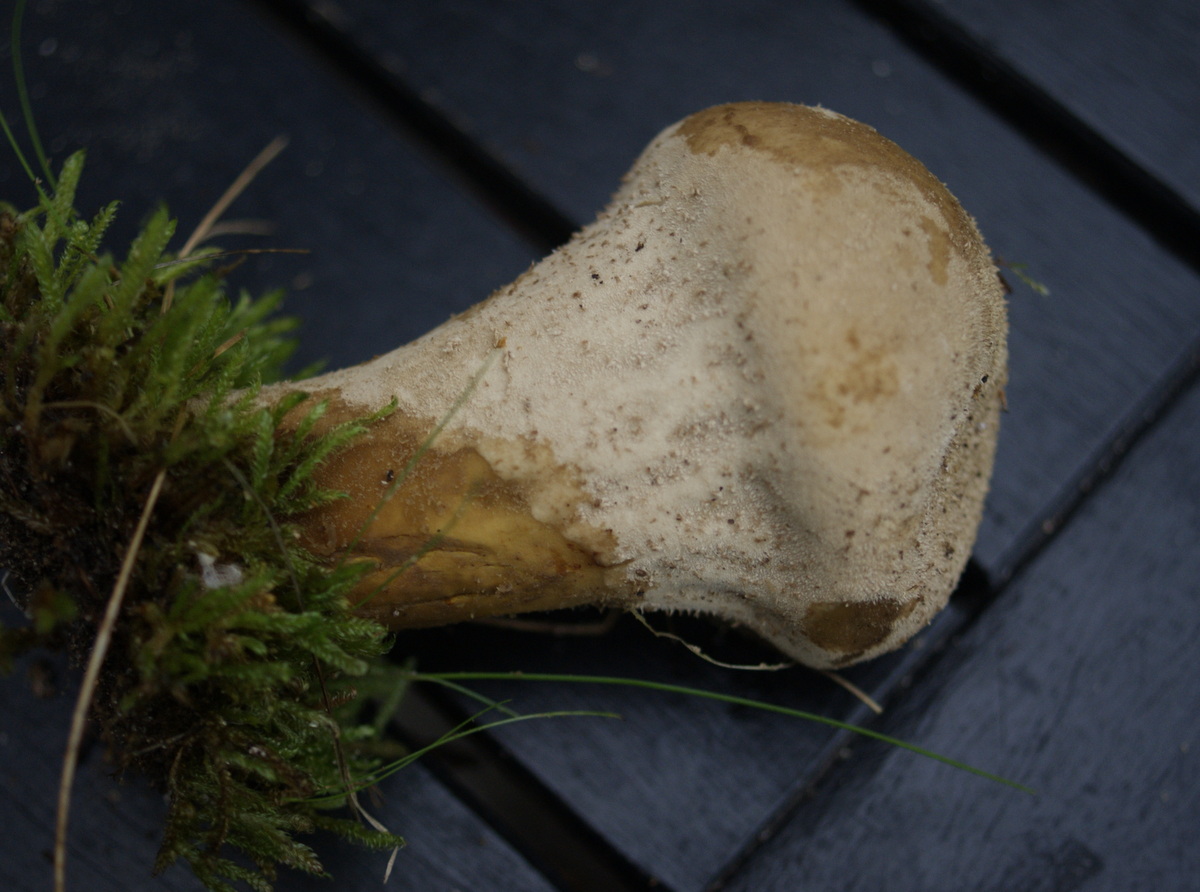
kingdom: Fungi
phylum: Basidiomycota
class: Agaricomycetes
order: Agaricales
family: Lycoperdaceae
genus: Lycoperdon
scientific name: Lycoperdon excipuliforme
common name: højstokket støvbold
